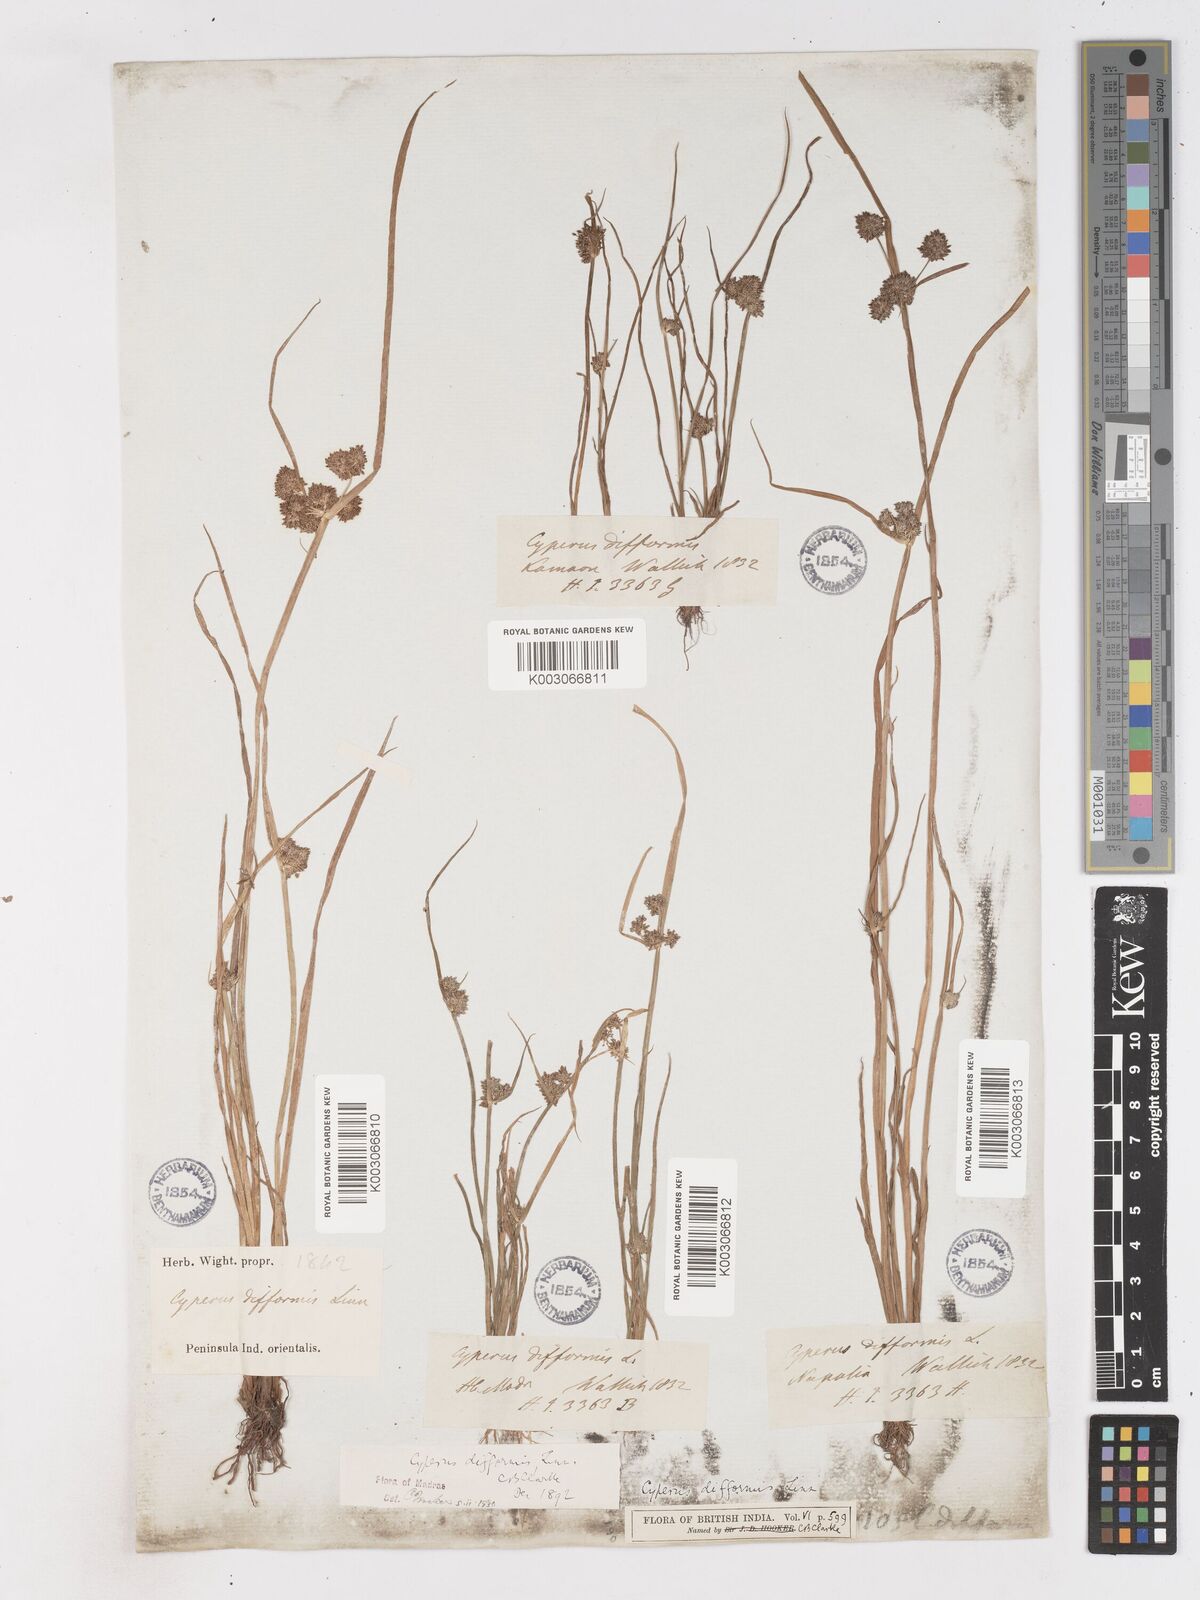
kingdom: Plantae
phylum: Tracheophyta
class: Liliopsida
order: Poales
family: Cyperaceae
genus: Cyperus
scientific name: Cyperus difformis
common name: Variable flatsedge
